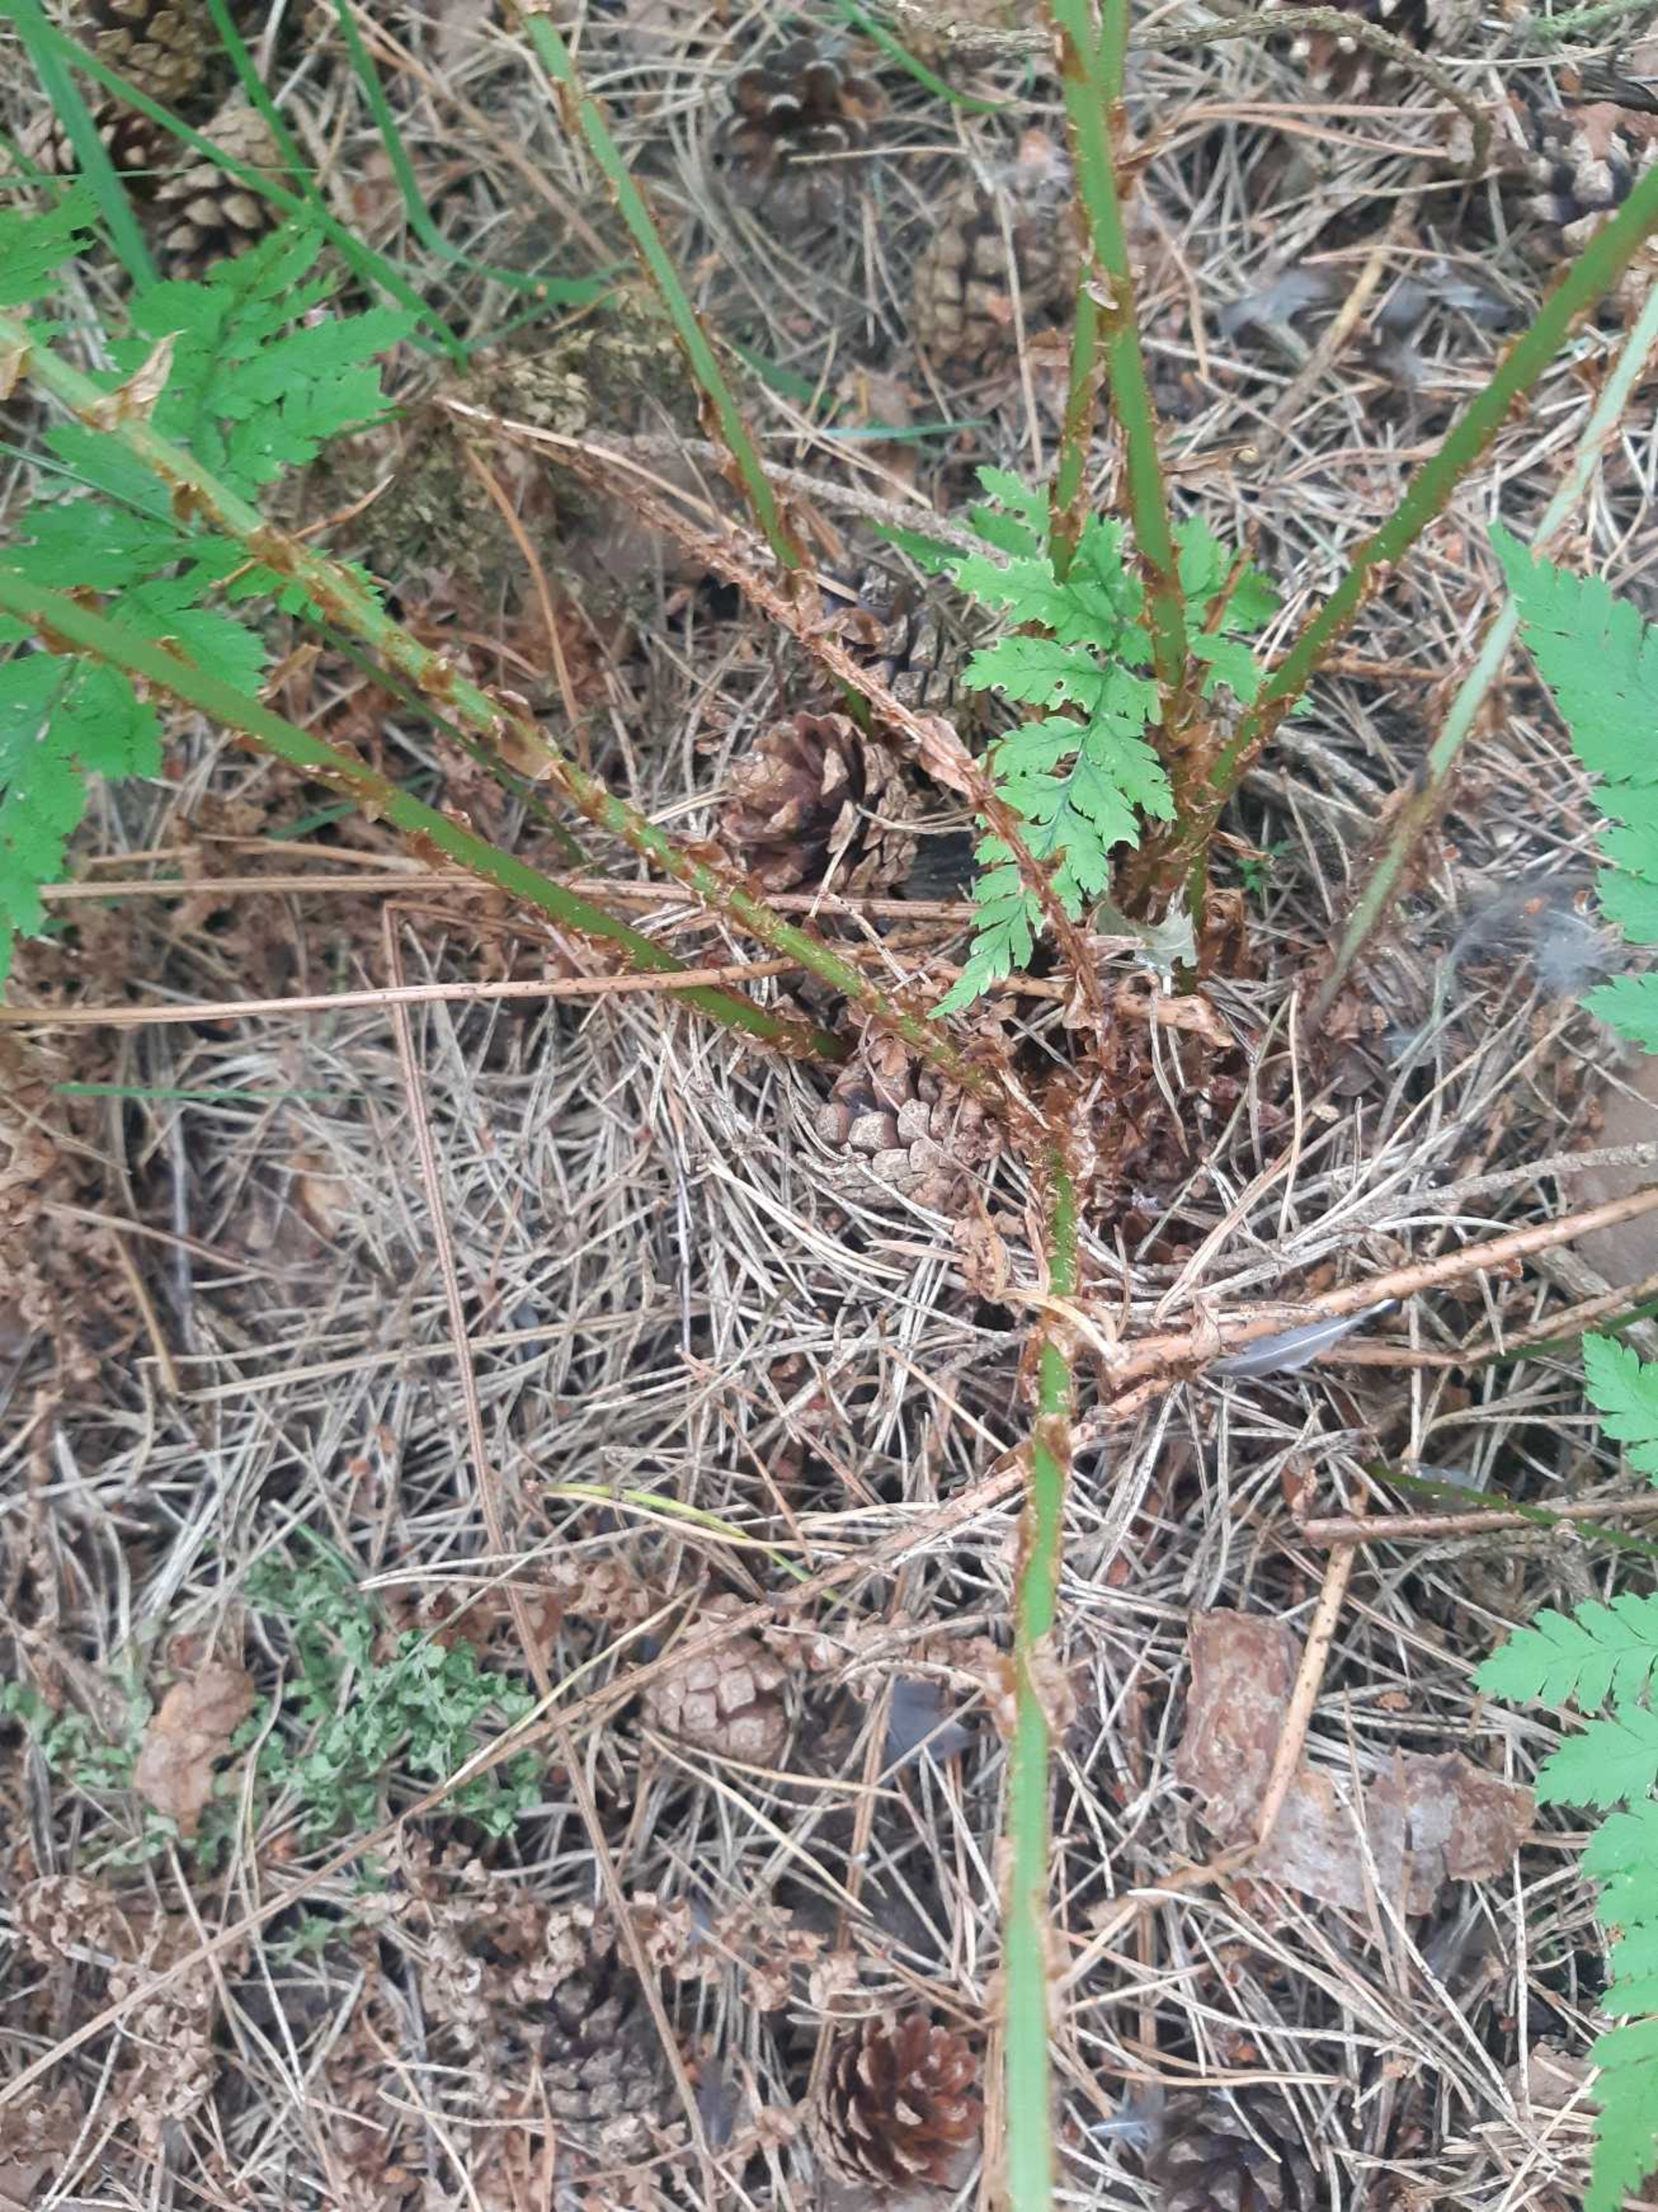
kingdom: Plantae
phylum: Tracheophyta
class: Polypodiopsida
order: Polypodiales
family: Dryopteridaceae
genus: Dryopteris
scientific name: Dryopteris dilatata
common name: Bredbladet mangeløv
